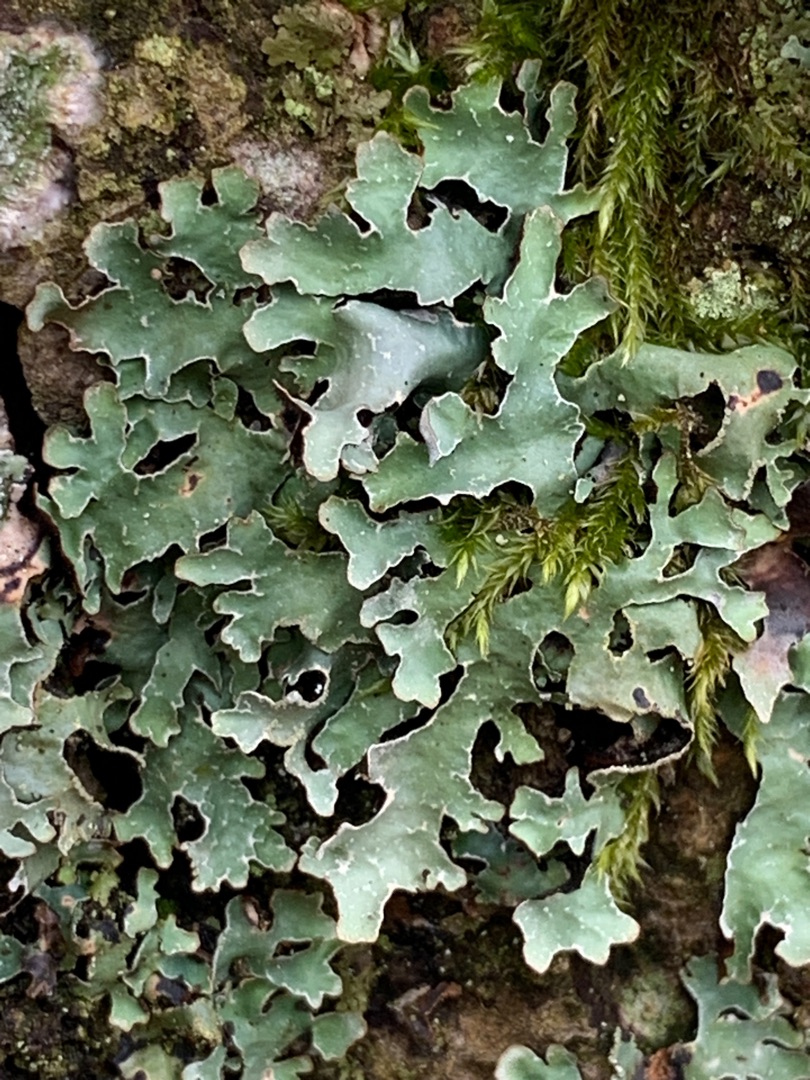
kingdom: Fungi
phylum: Ascomycota
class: Lecanoromycetes
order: Lecanorales
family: Parmeliaceae
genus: Parmelia
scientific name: Parmelia sulcata
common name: Rynket skållav
